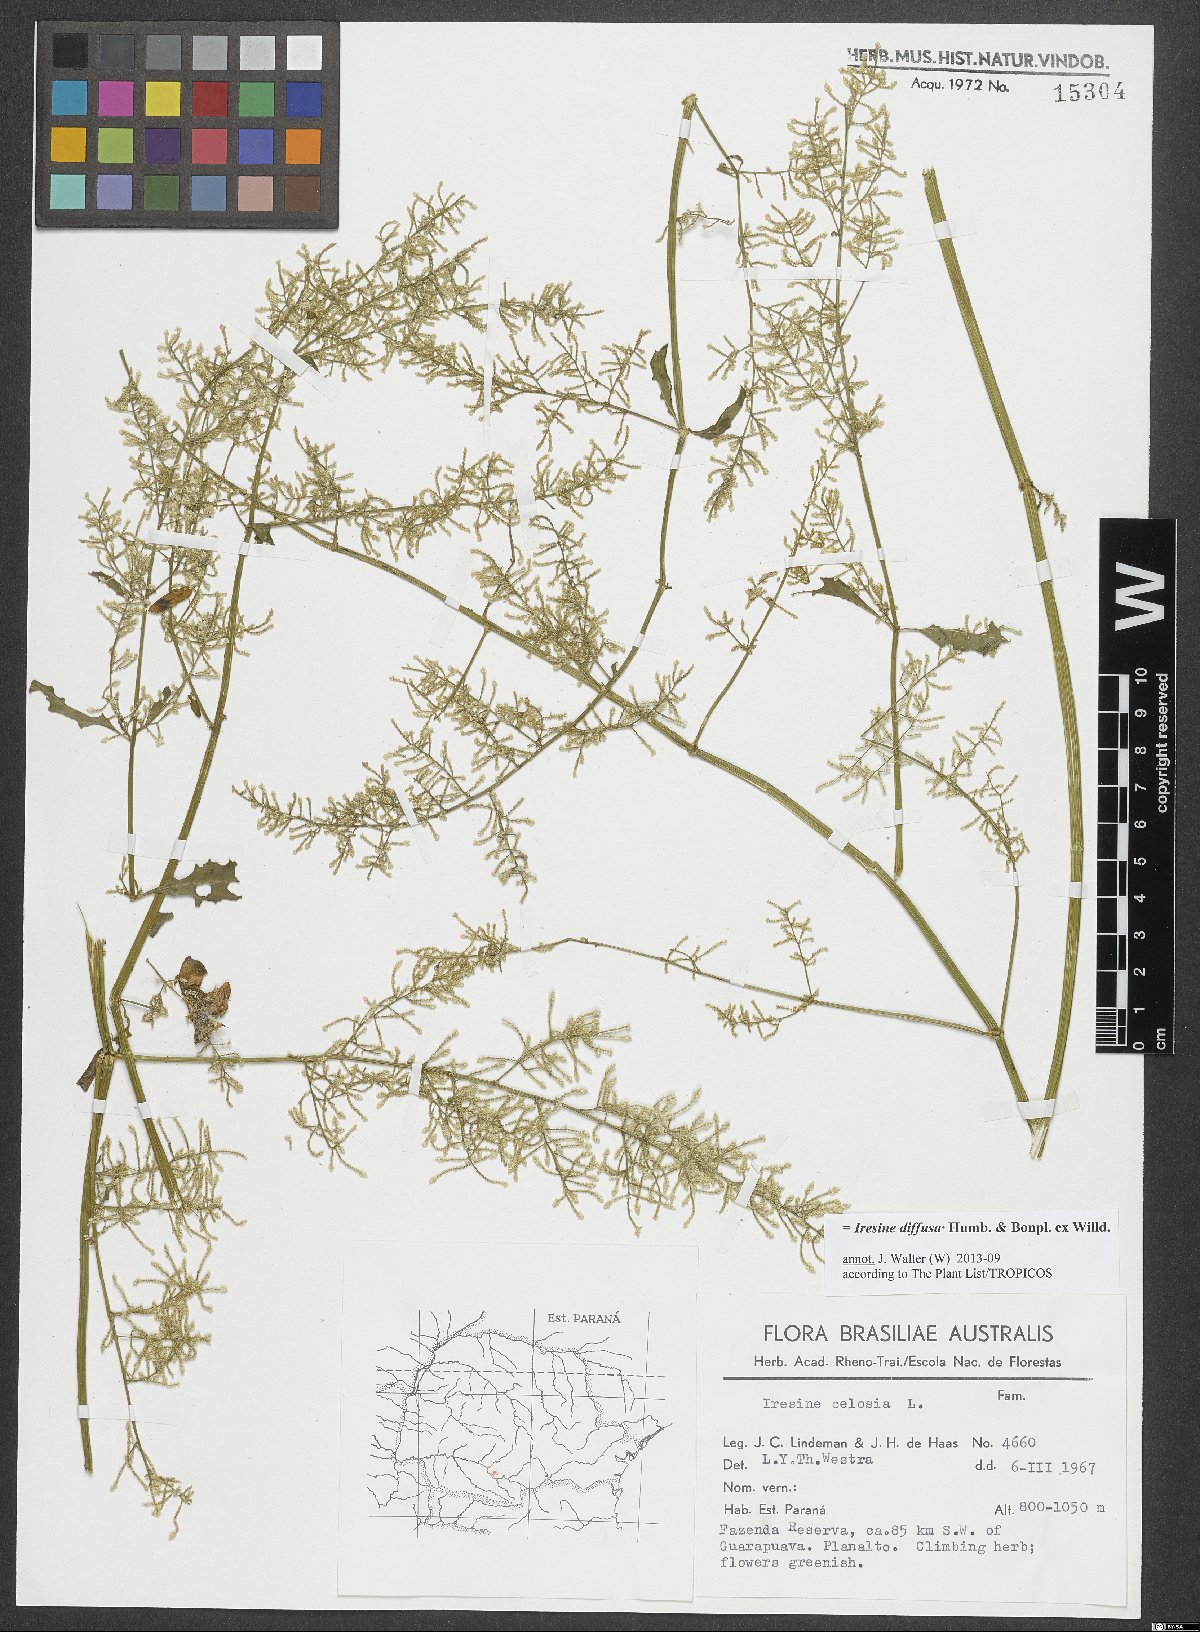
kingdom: Plantae
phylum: Tracheophyta
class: Magnoliopsida
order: Caryophyllales
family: Amaranthaceae
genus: Iresine
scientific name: Iresine diffusa
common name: Juba's-bush
